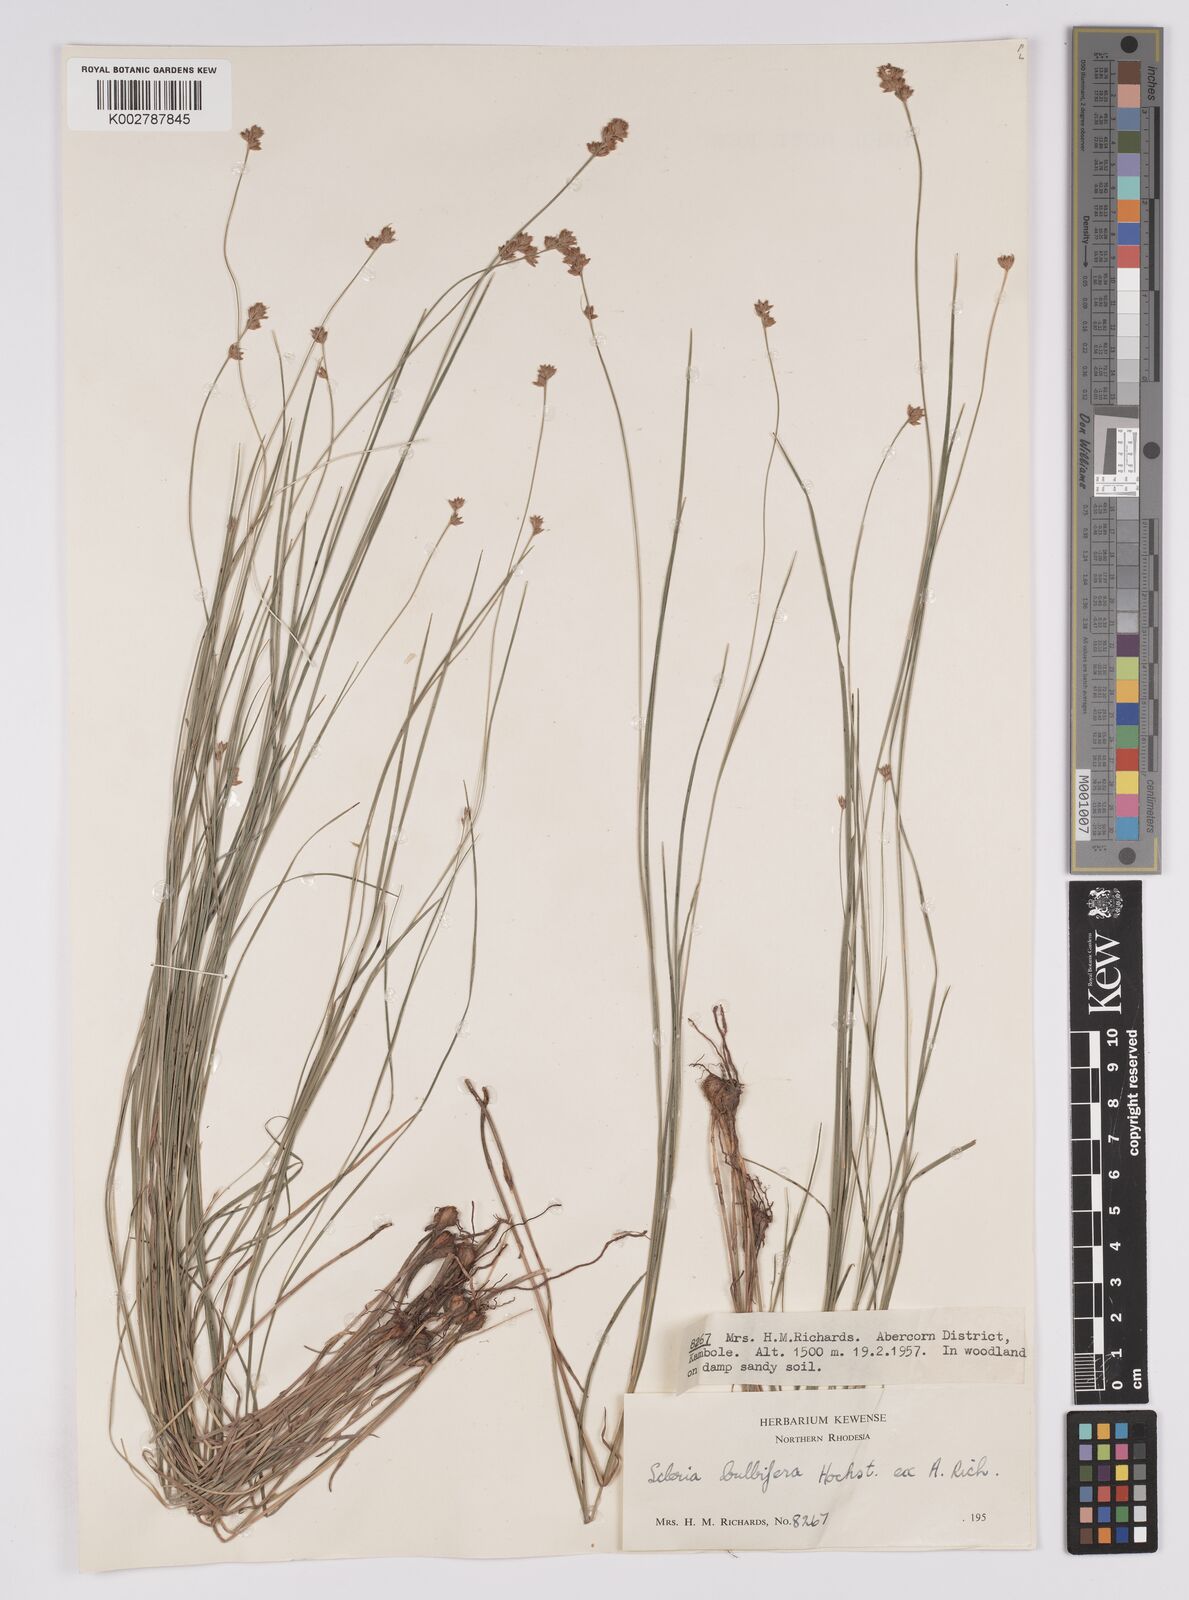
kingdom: Plantae
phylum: Tracheophyta
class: Liliopsida
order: Poales
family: Cyperaceae
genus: Scleria
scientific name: Scleria bulbifera
